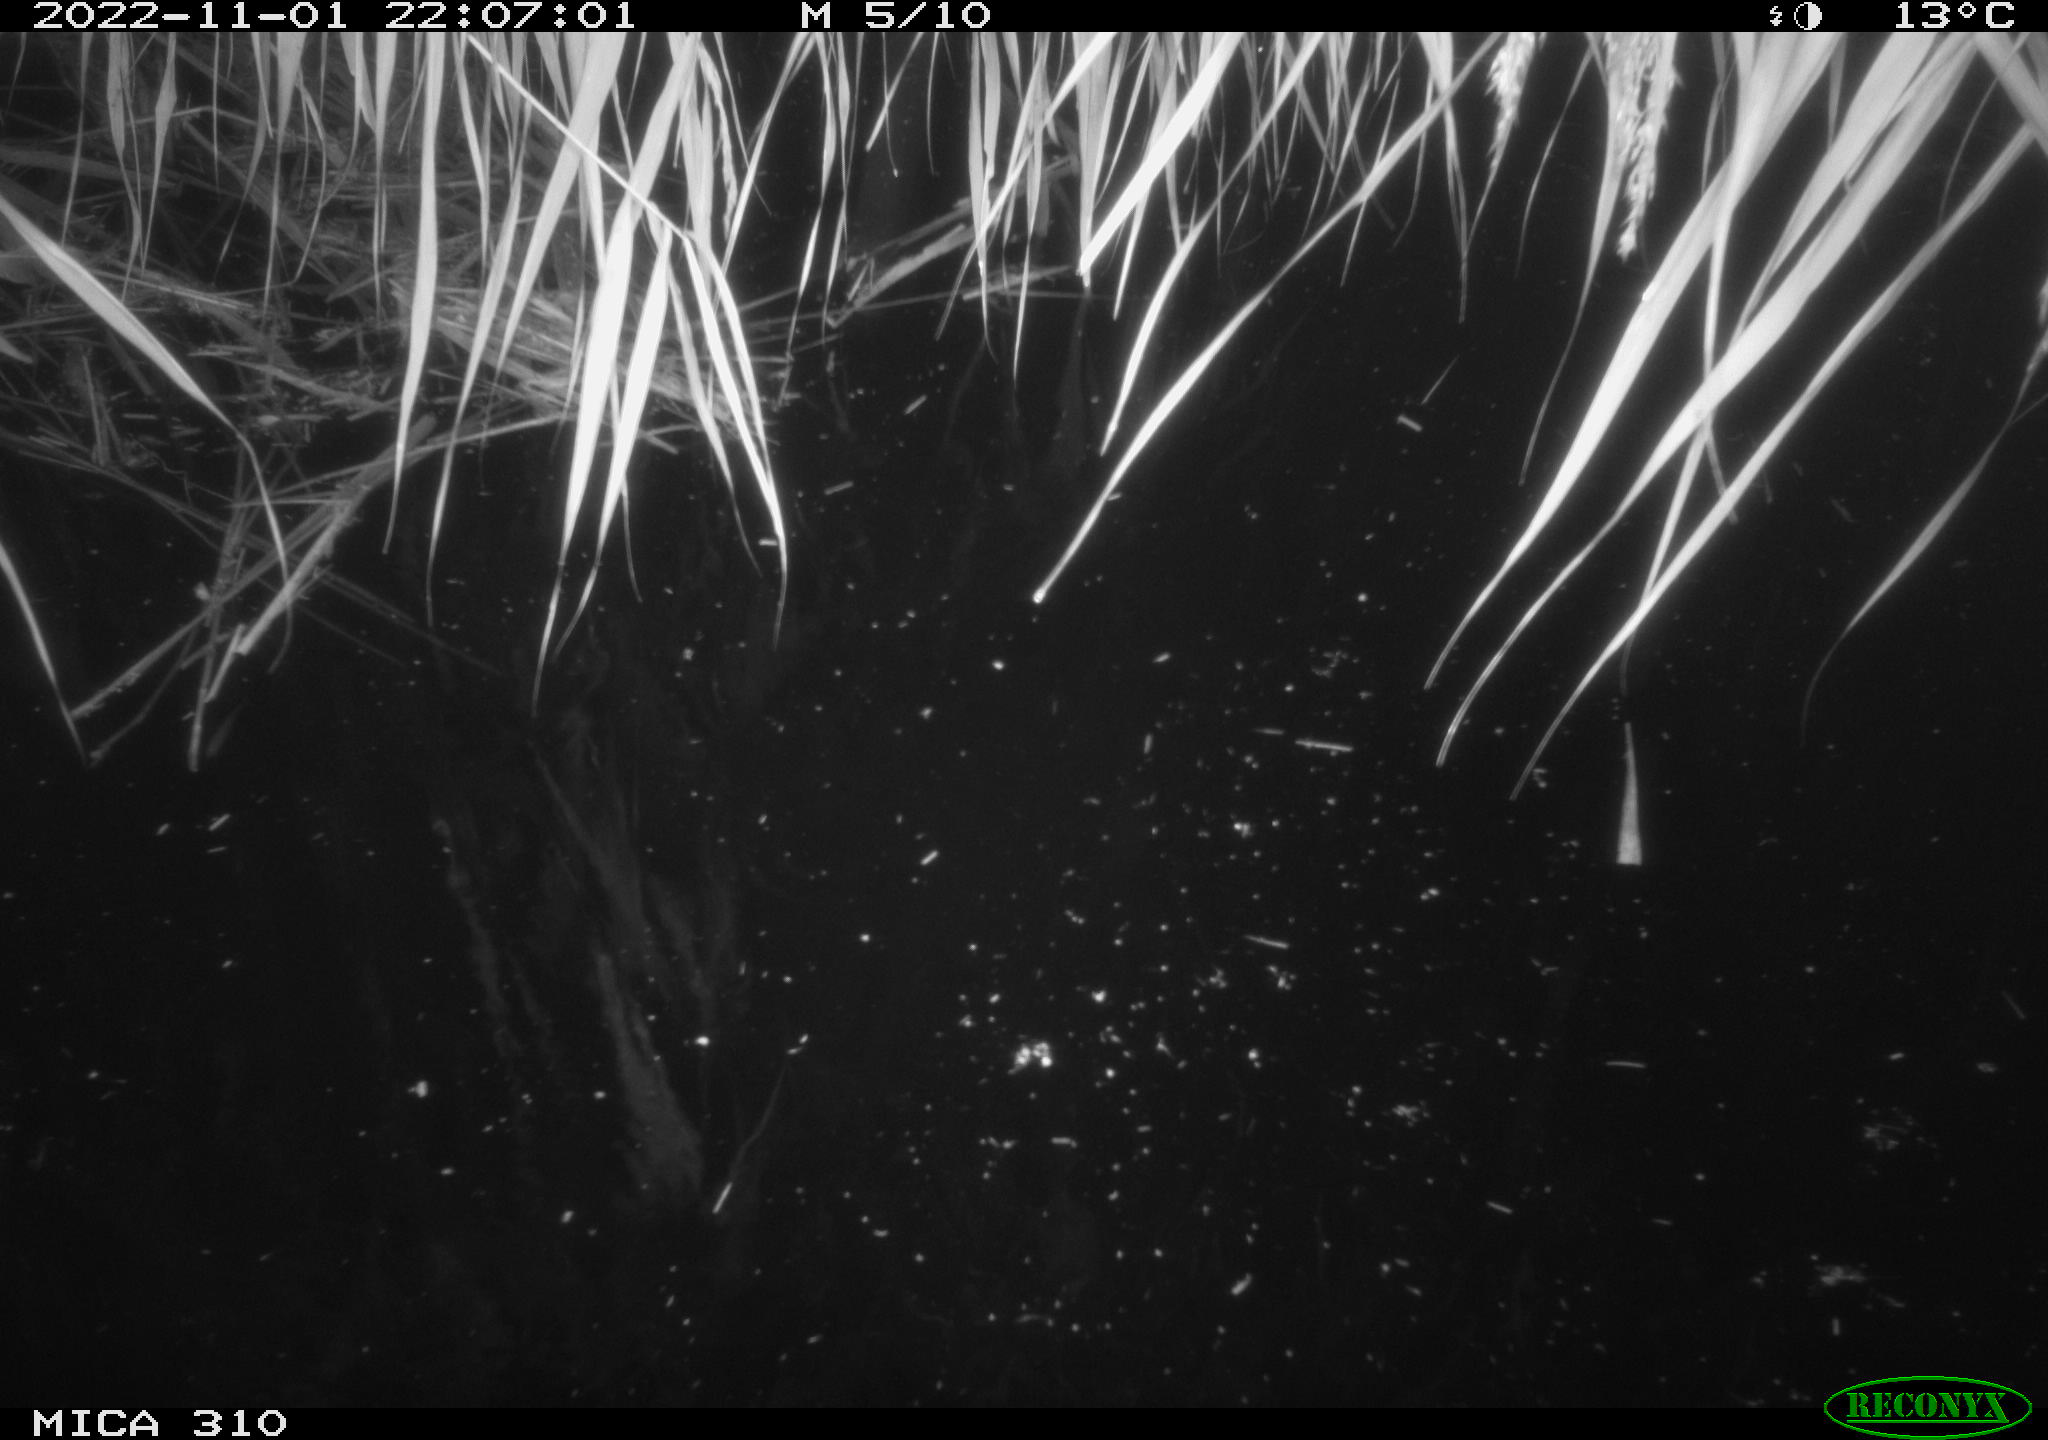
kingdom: Animalia
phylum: Chordata
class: Mammalia
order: Rodentia
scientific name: Rodentia
